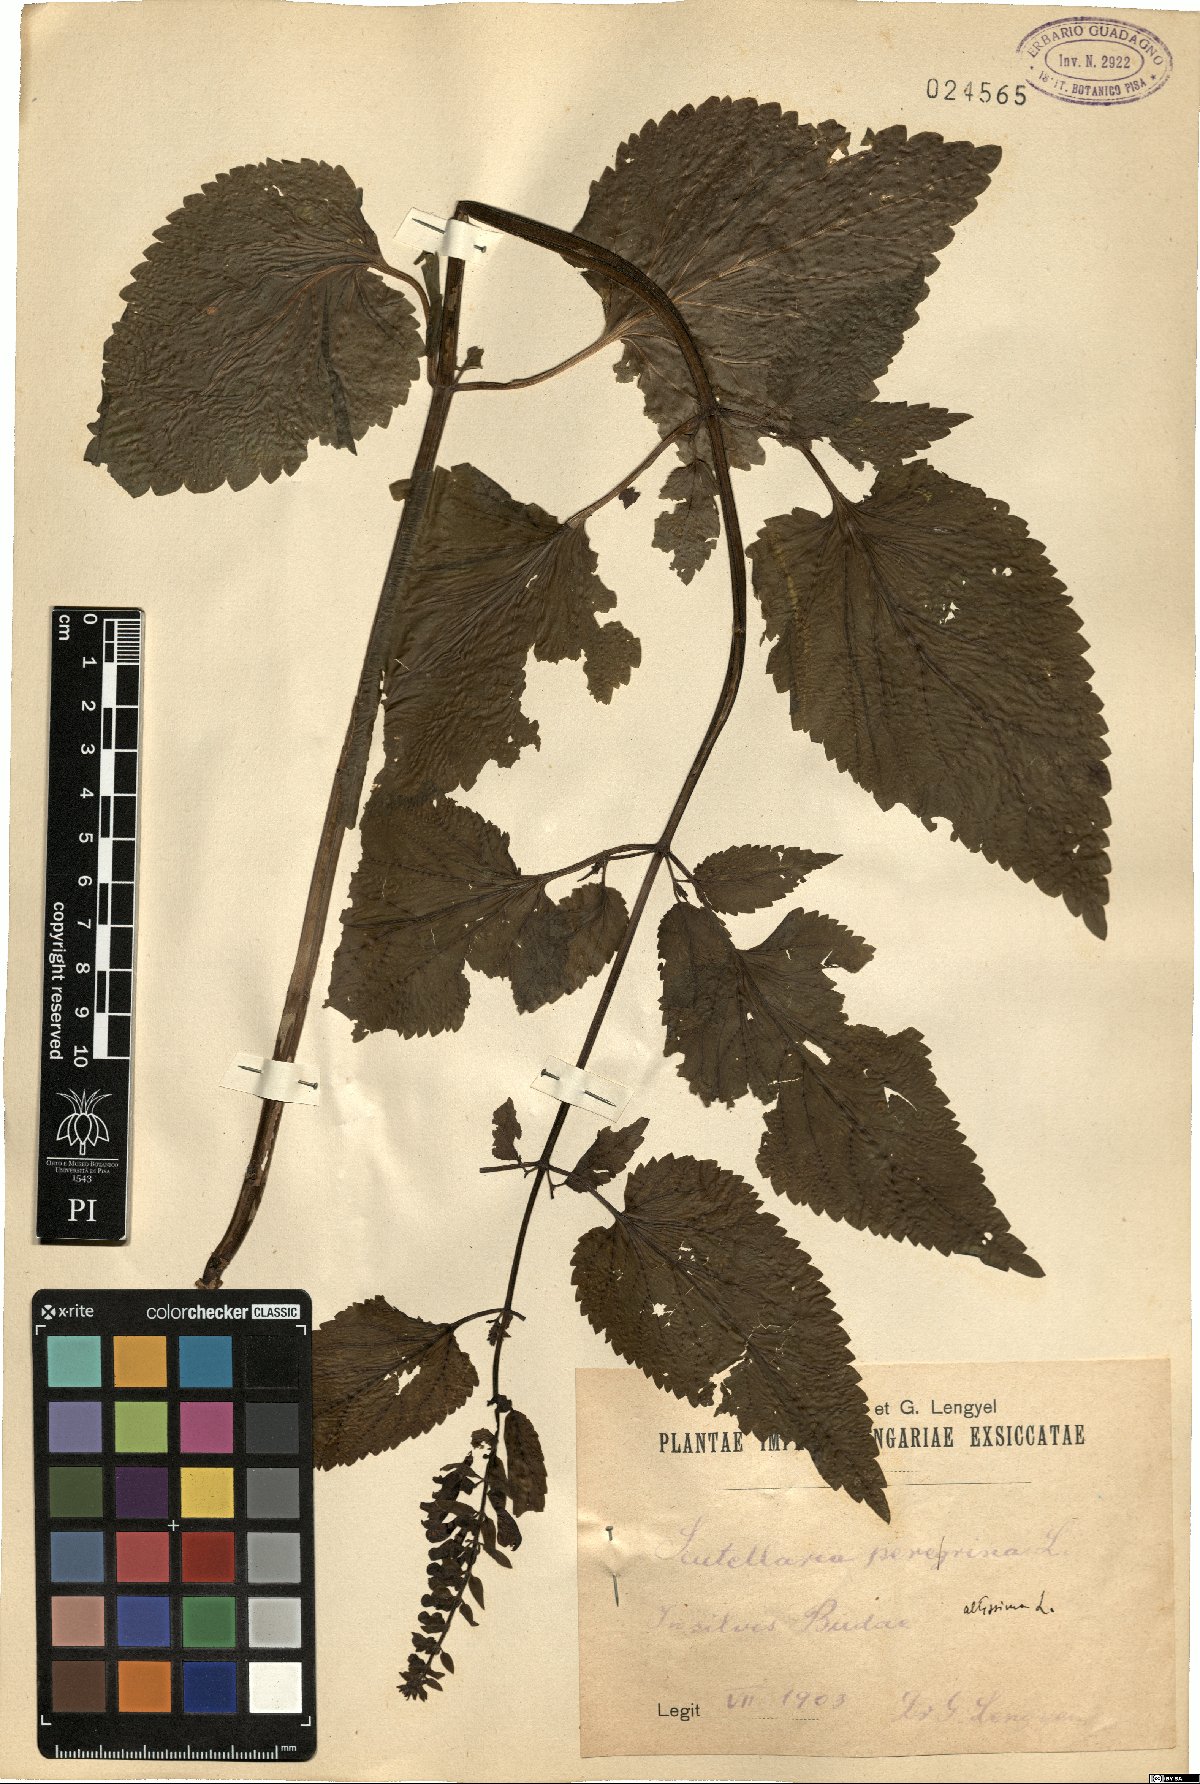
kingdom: Plantae
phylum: Tracheophyta
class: Magnoliopsida
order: Lamiales
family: Lamiaceae
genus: Scutellaria
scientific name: Scutellaria columnae
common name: Large skullcap
